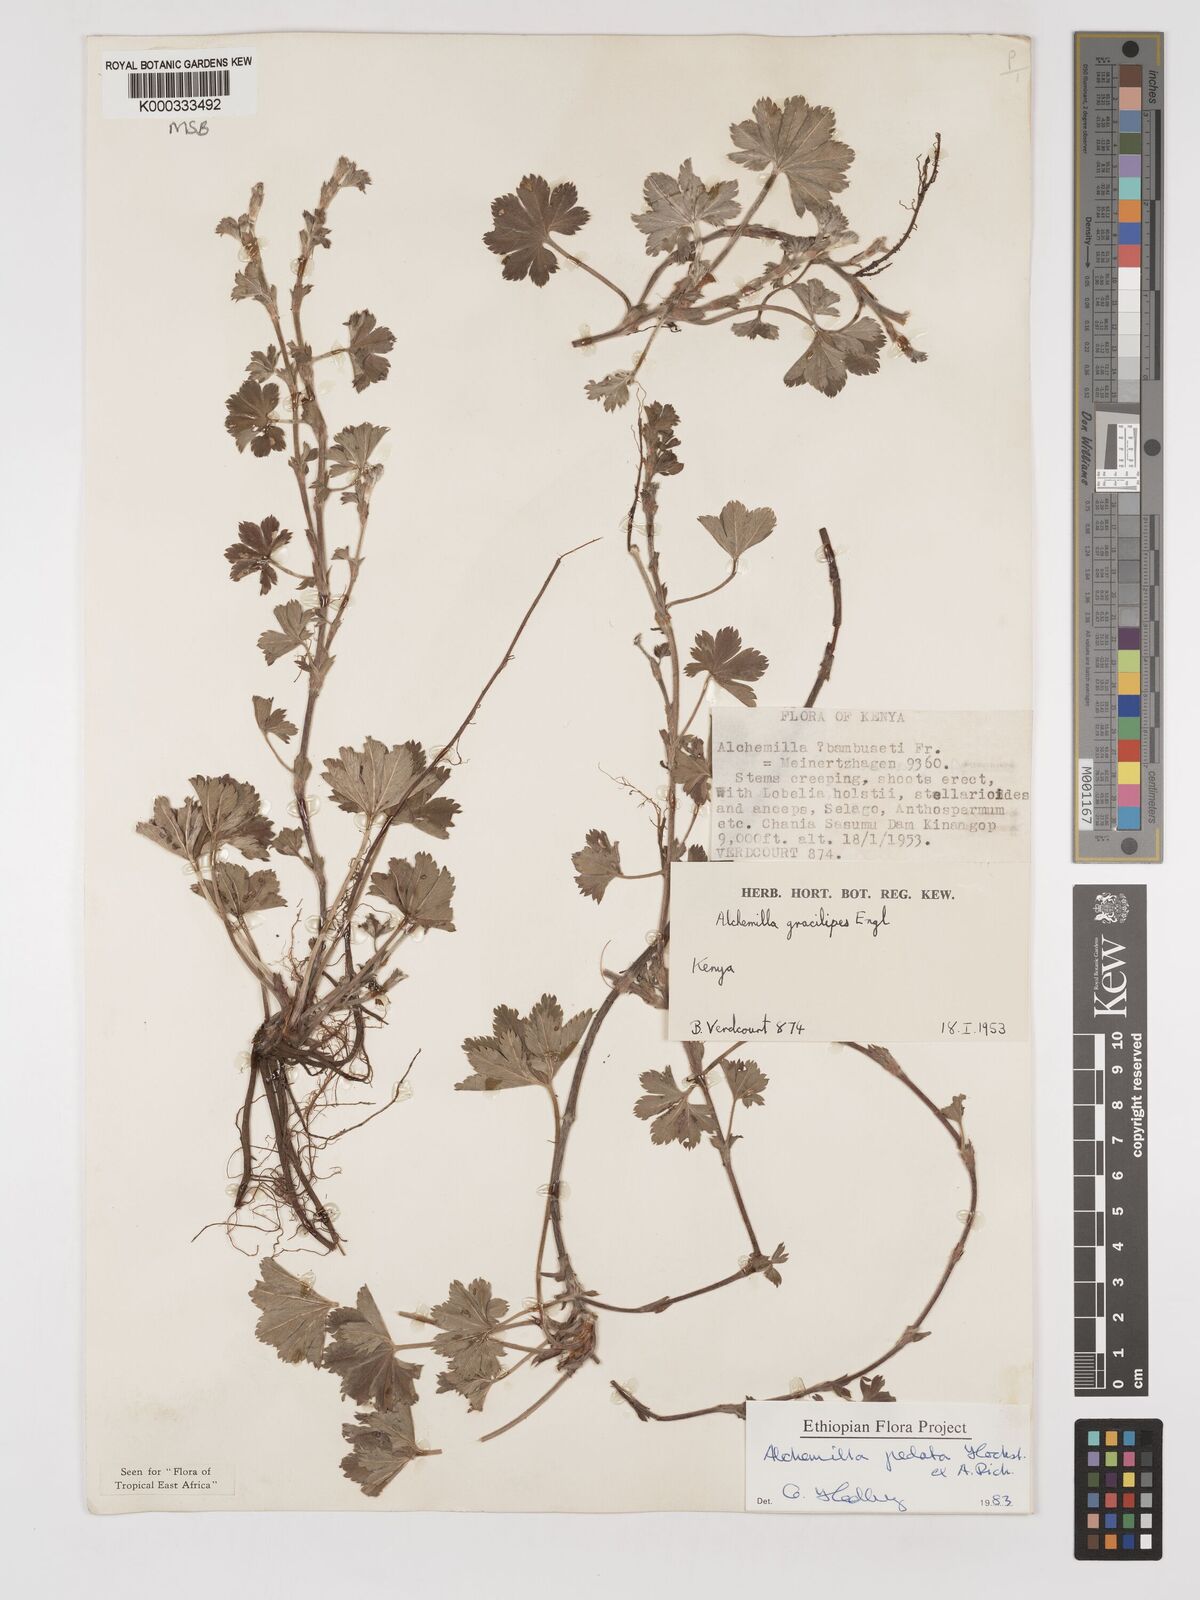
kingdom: Plantae
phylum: Tracheophyta
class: Magnoliopsida
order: Rosales
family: Rosaceae
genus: Alchemilla
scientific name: Alchemilla pedata
